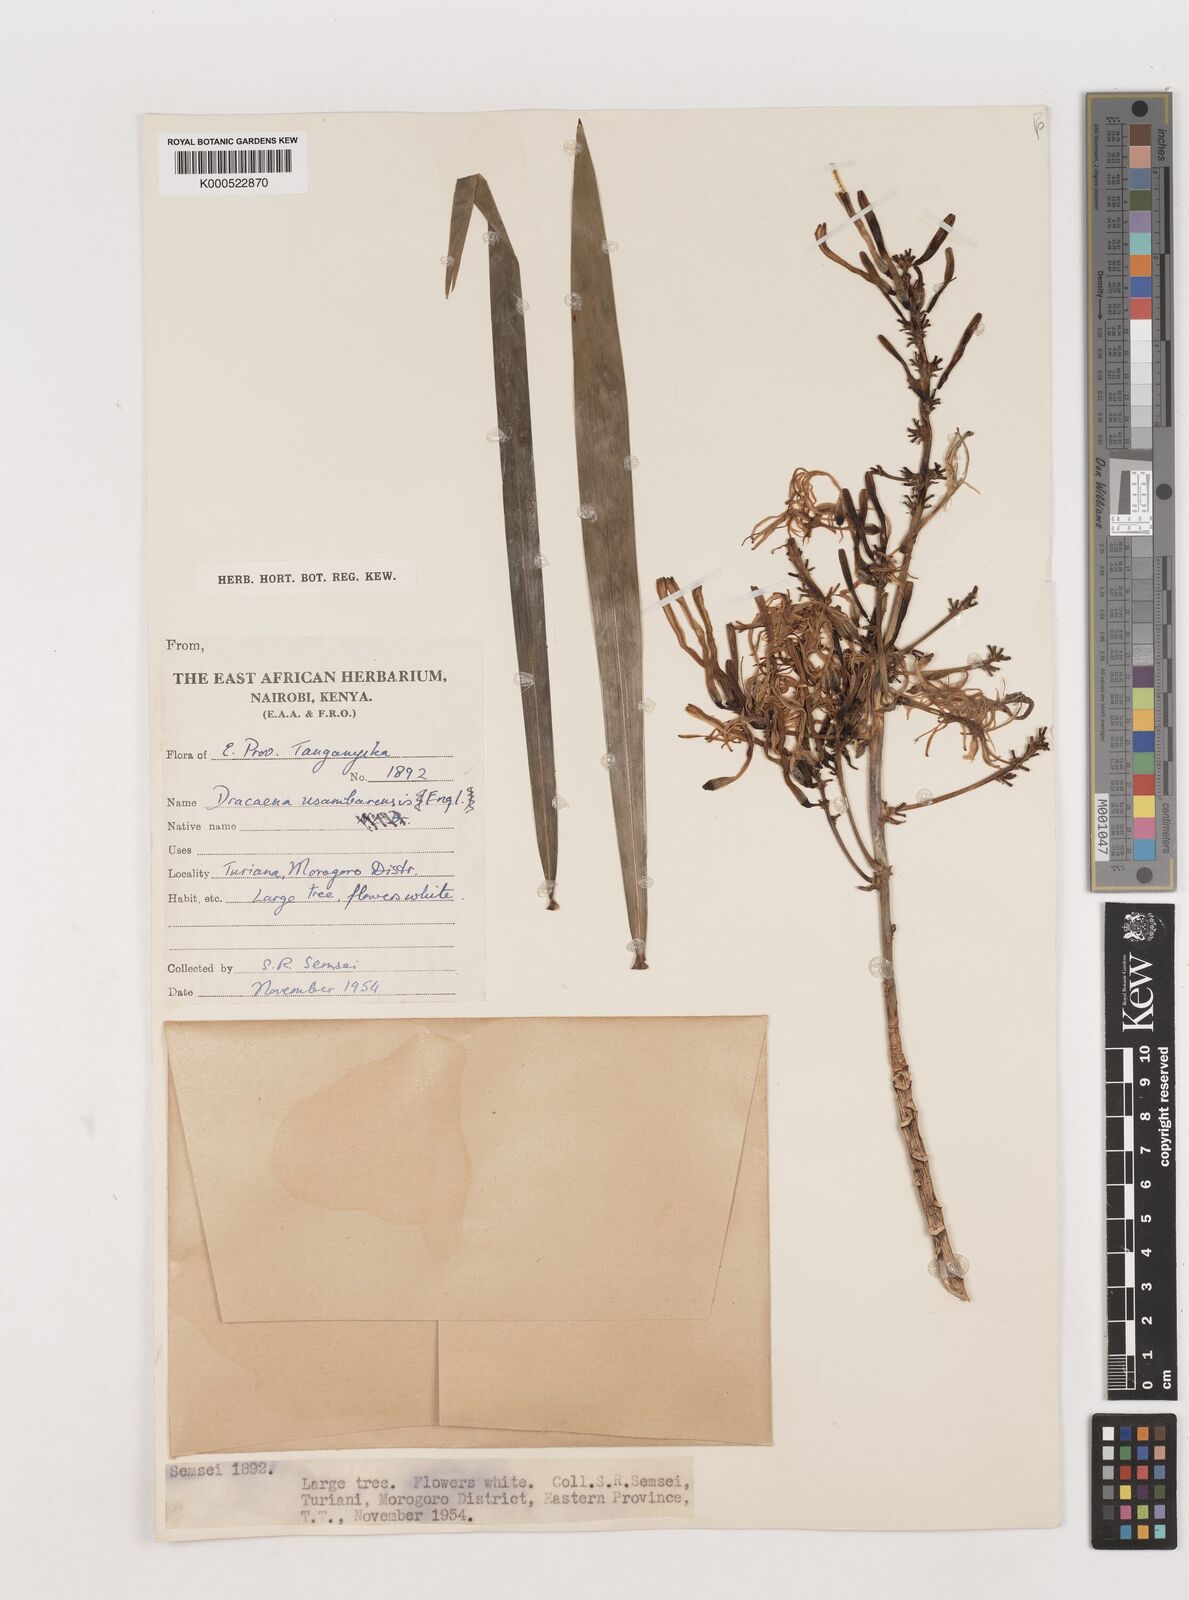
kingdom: Plantae
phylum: Tracheophyta
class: Liliopsida
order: Asparagales
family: Asparagaceae
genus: Dracaena
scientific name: Dracaena usambarensis
